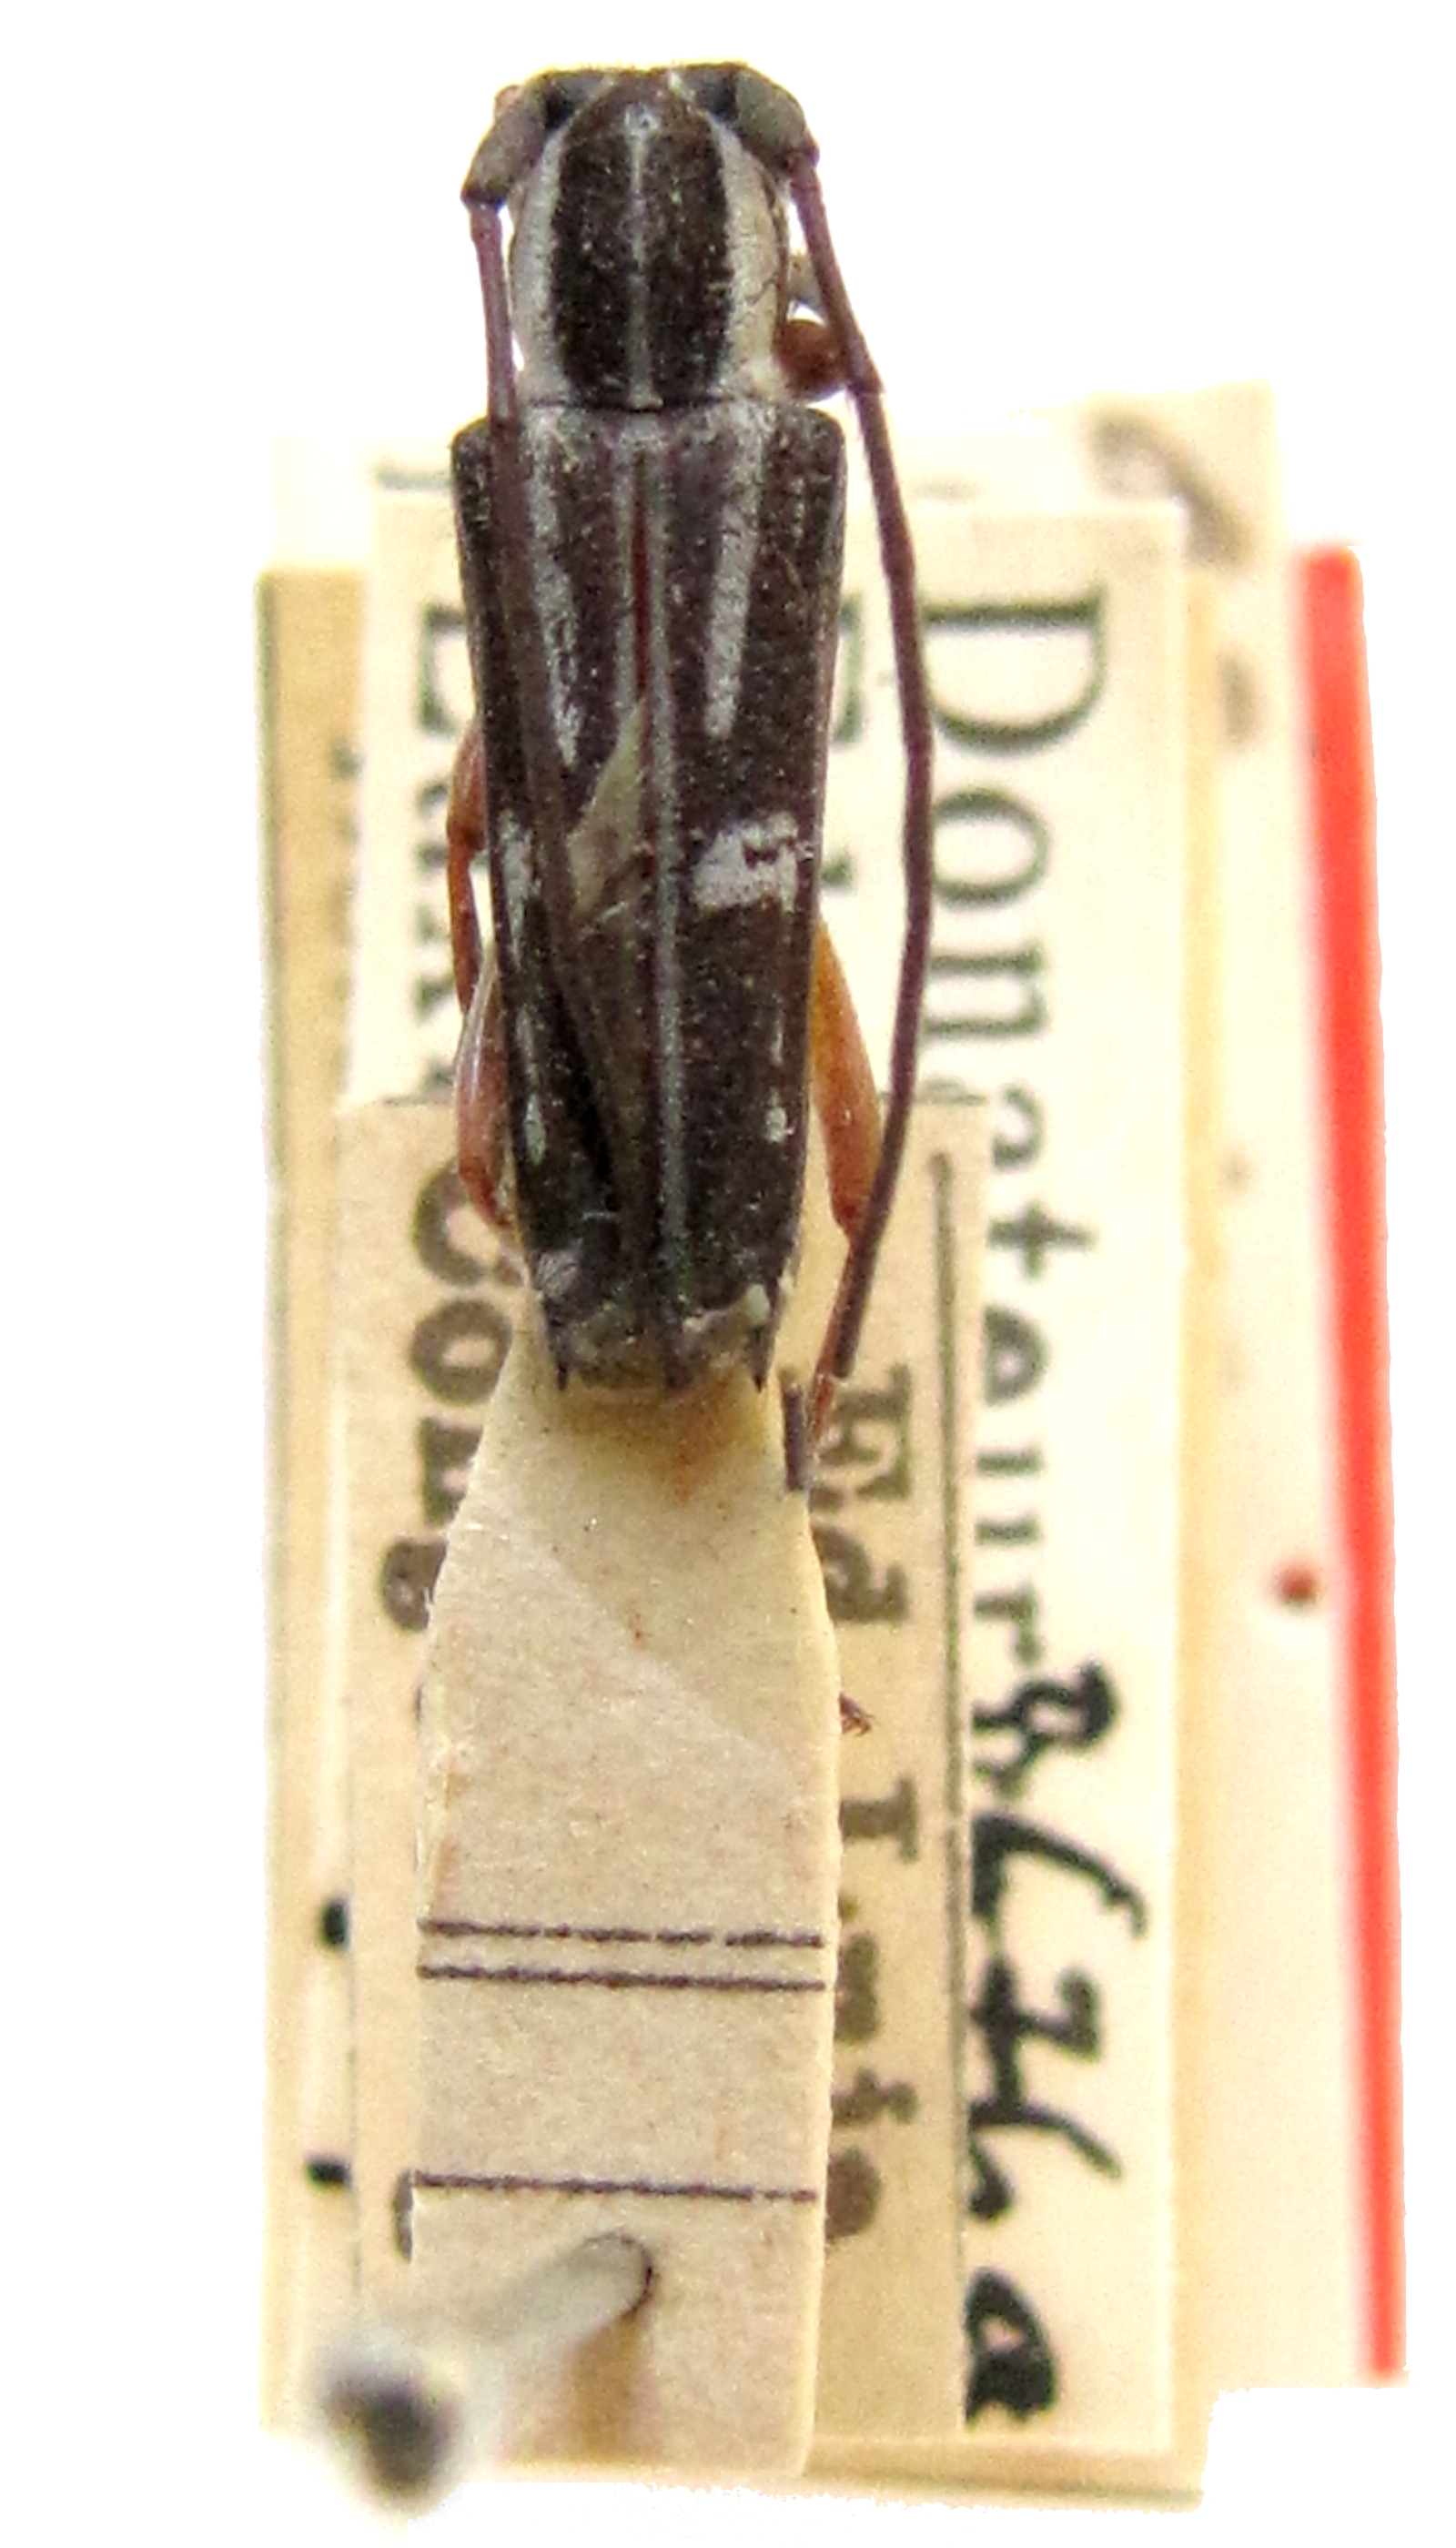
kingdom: Animalia
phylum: Arthropoda
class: Insecta
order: Coleoptera
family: Cerambycidae
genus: Glenea
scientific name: Glenea puella
